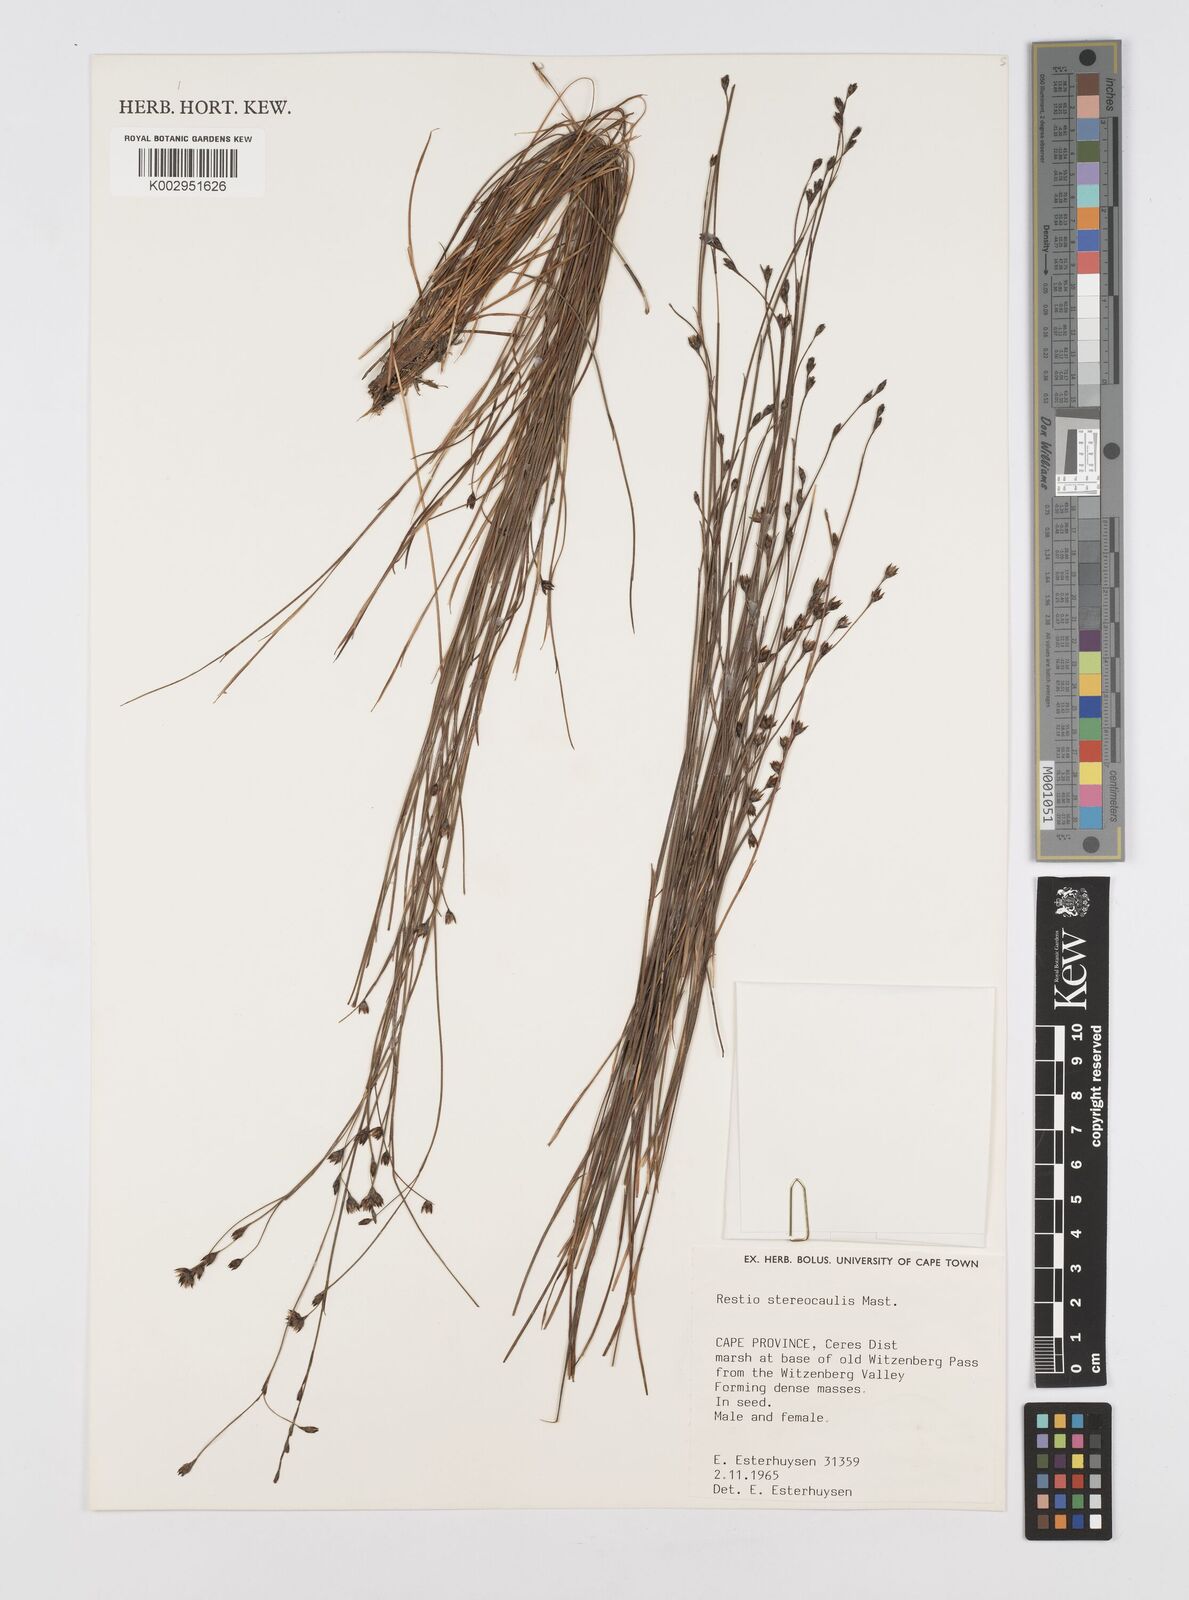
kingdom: Plantae
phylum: Tracheophyta
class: Liliopsida
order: Poales
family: Restionaceae
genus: Restio
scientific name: Restio stereocaulis
